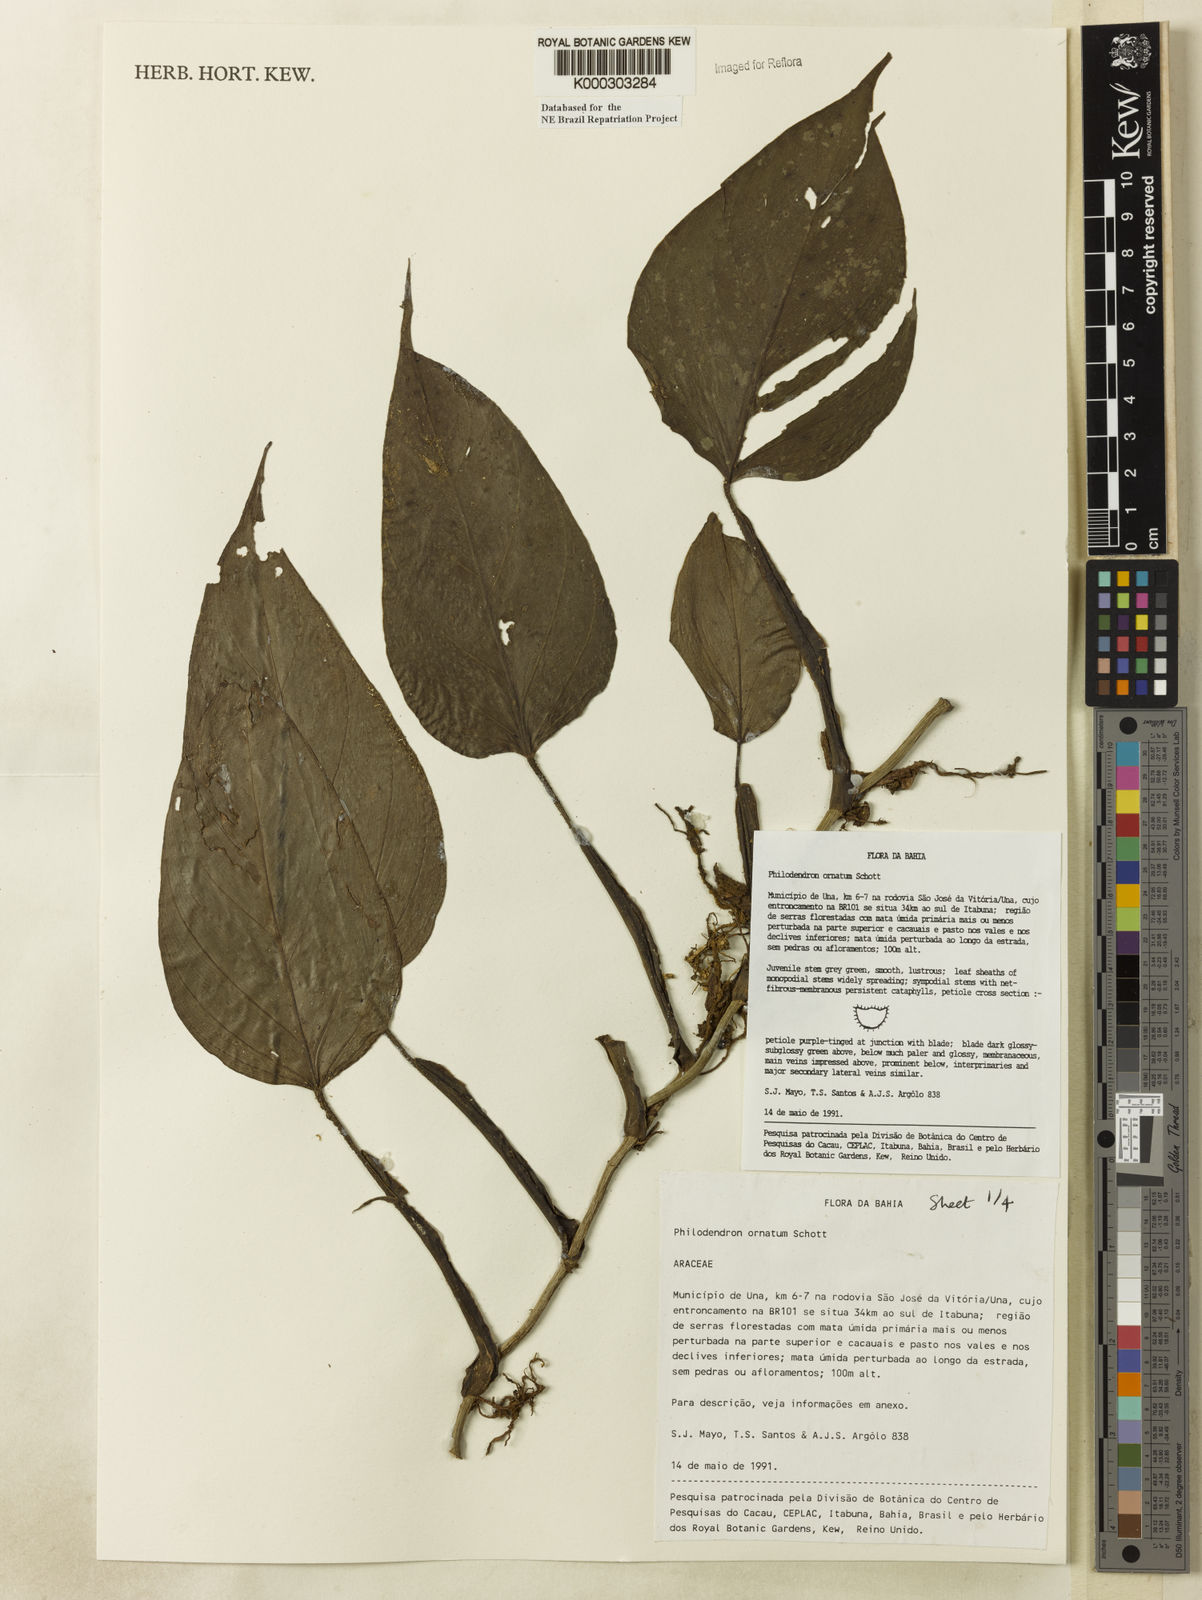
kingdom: Plantae
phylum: Tracheophyta
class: Liliopsida
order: Alismatales
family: Araceae
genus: Philodendron
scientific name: Philodendron ornatum
